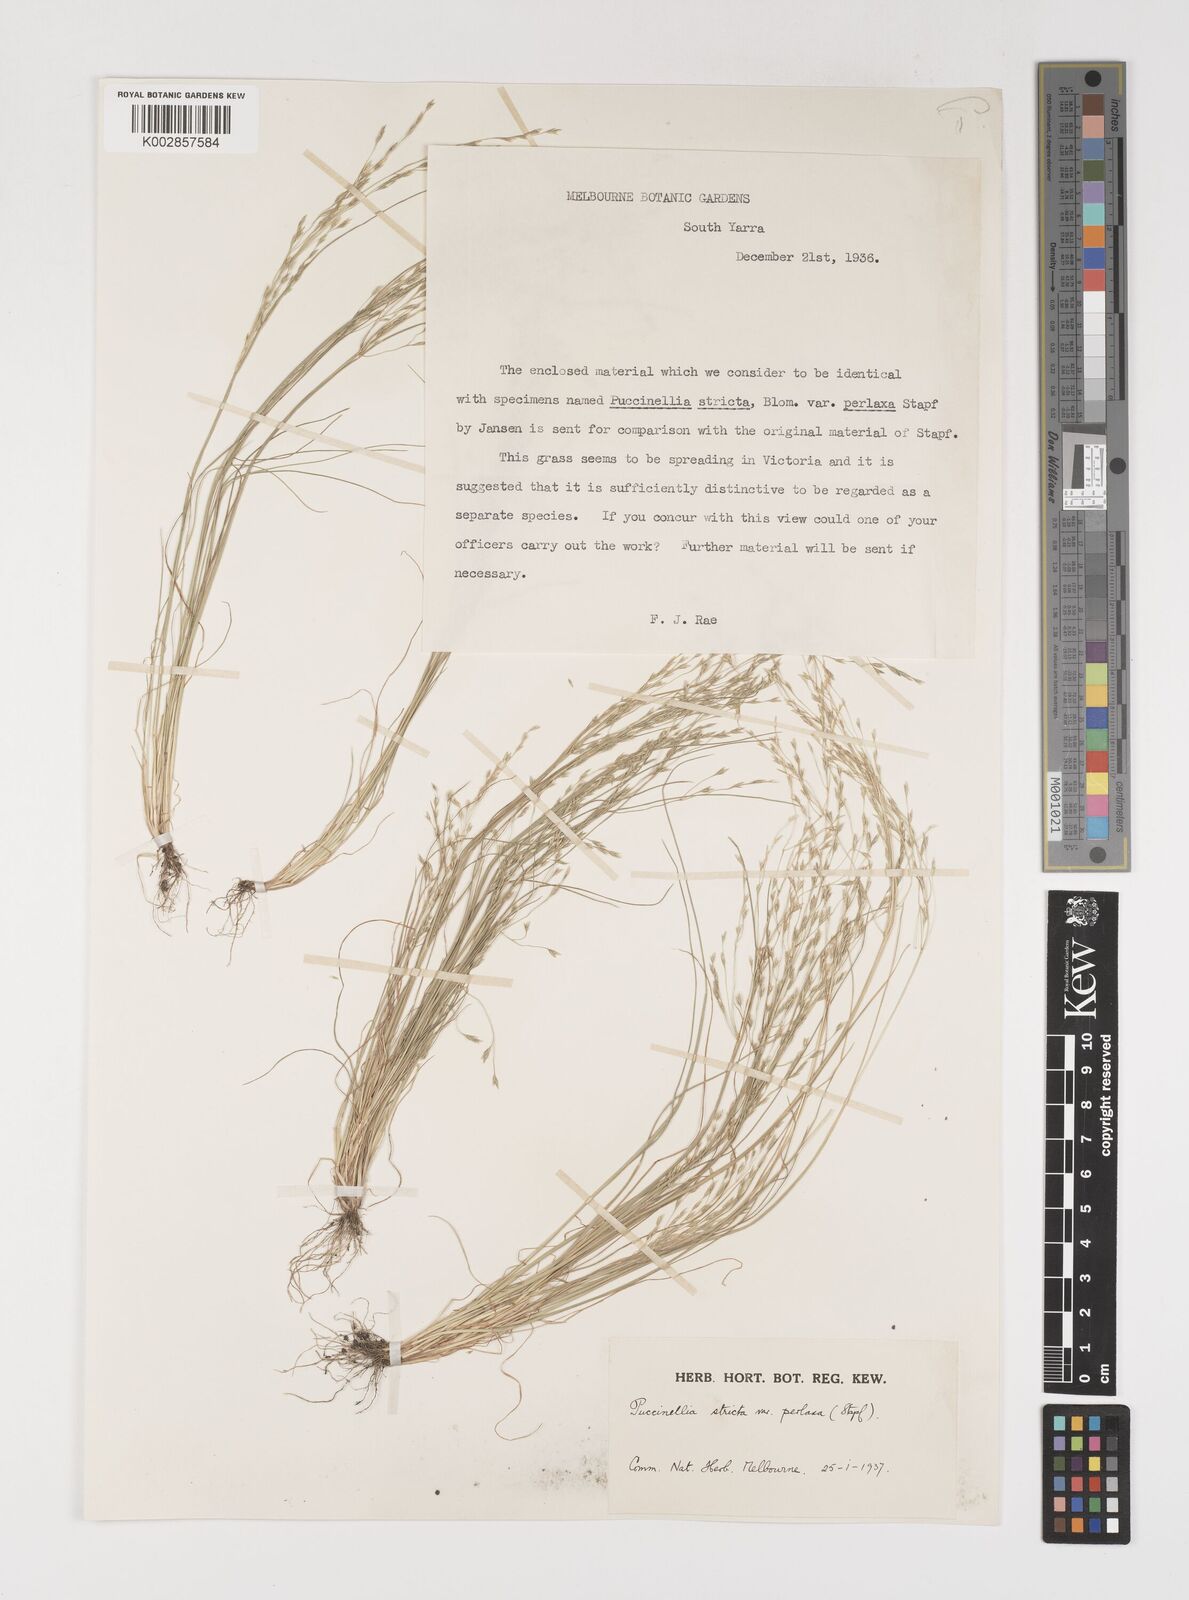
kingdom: Plantae
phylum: Tracheophyta
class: Liliopsida
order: Poales
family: Poaceae
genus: Puccinellia
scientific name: Puccinellia stricta
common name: Australian saltmarsh grass
